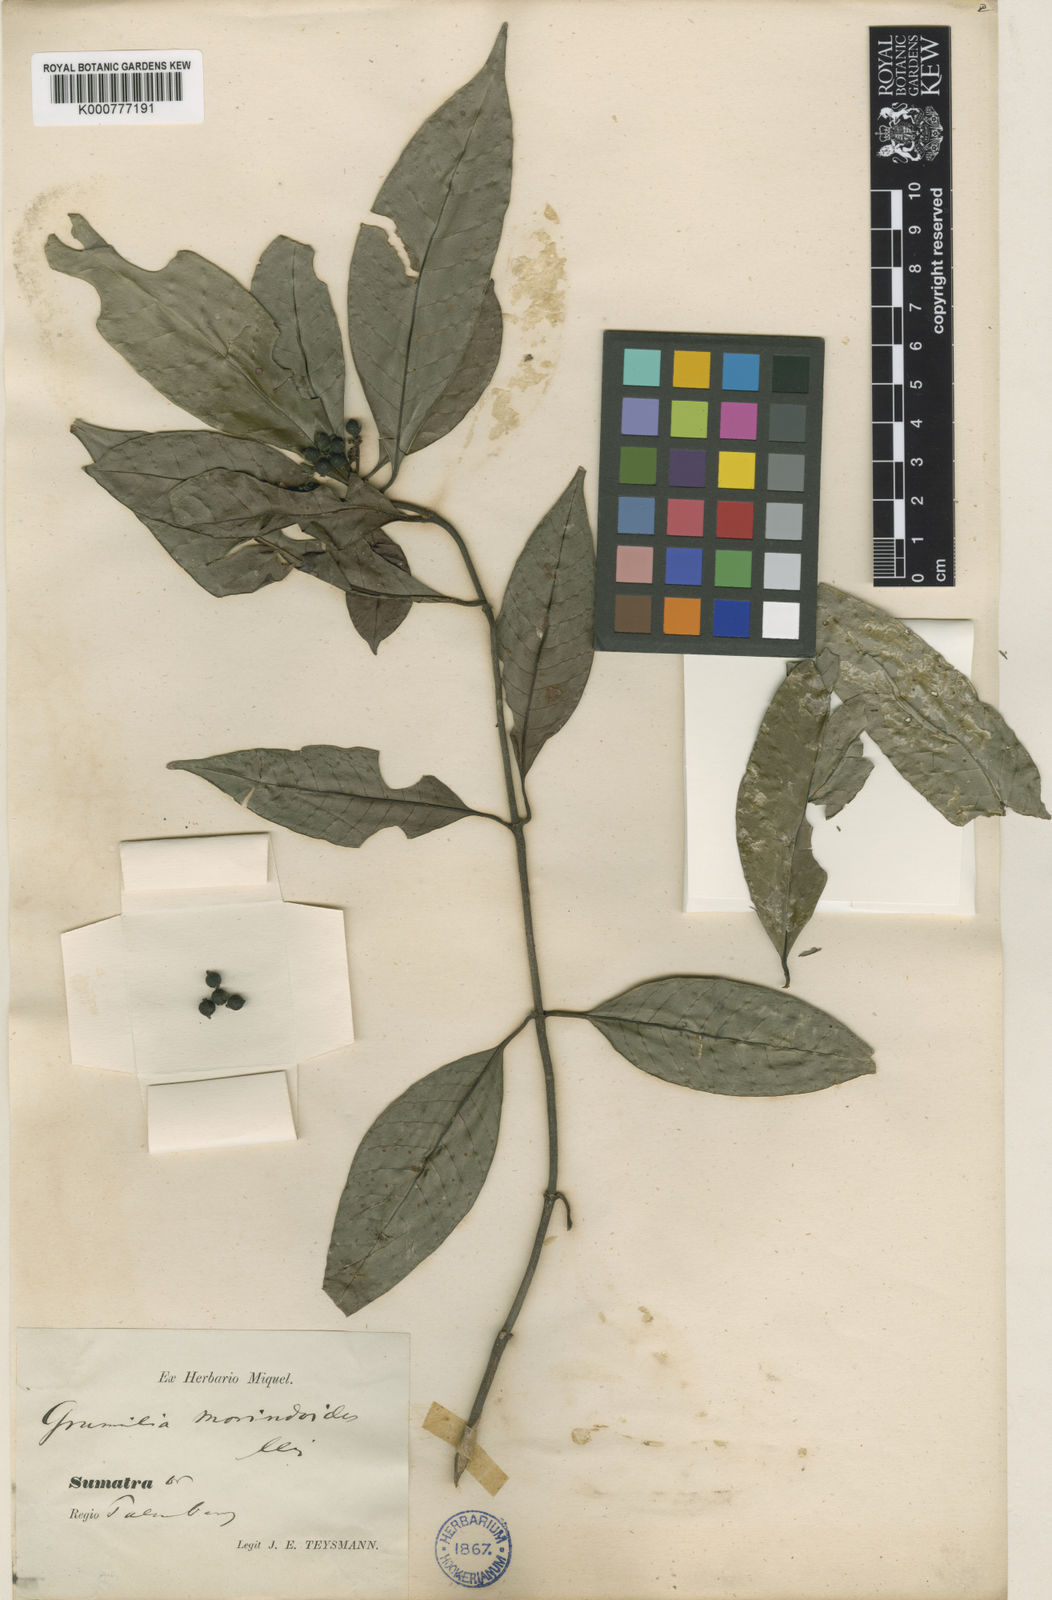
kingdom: Plantae
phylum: Tracheophyta
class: Magnoliopsida
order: Gentianales
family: Rubiaceae
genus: Psychotria
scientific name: Psychotria leucocarpa
